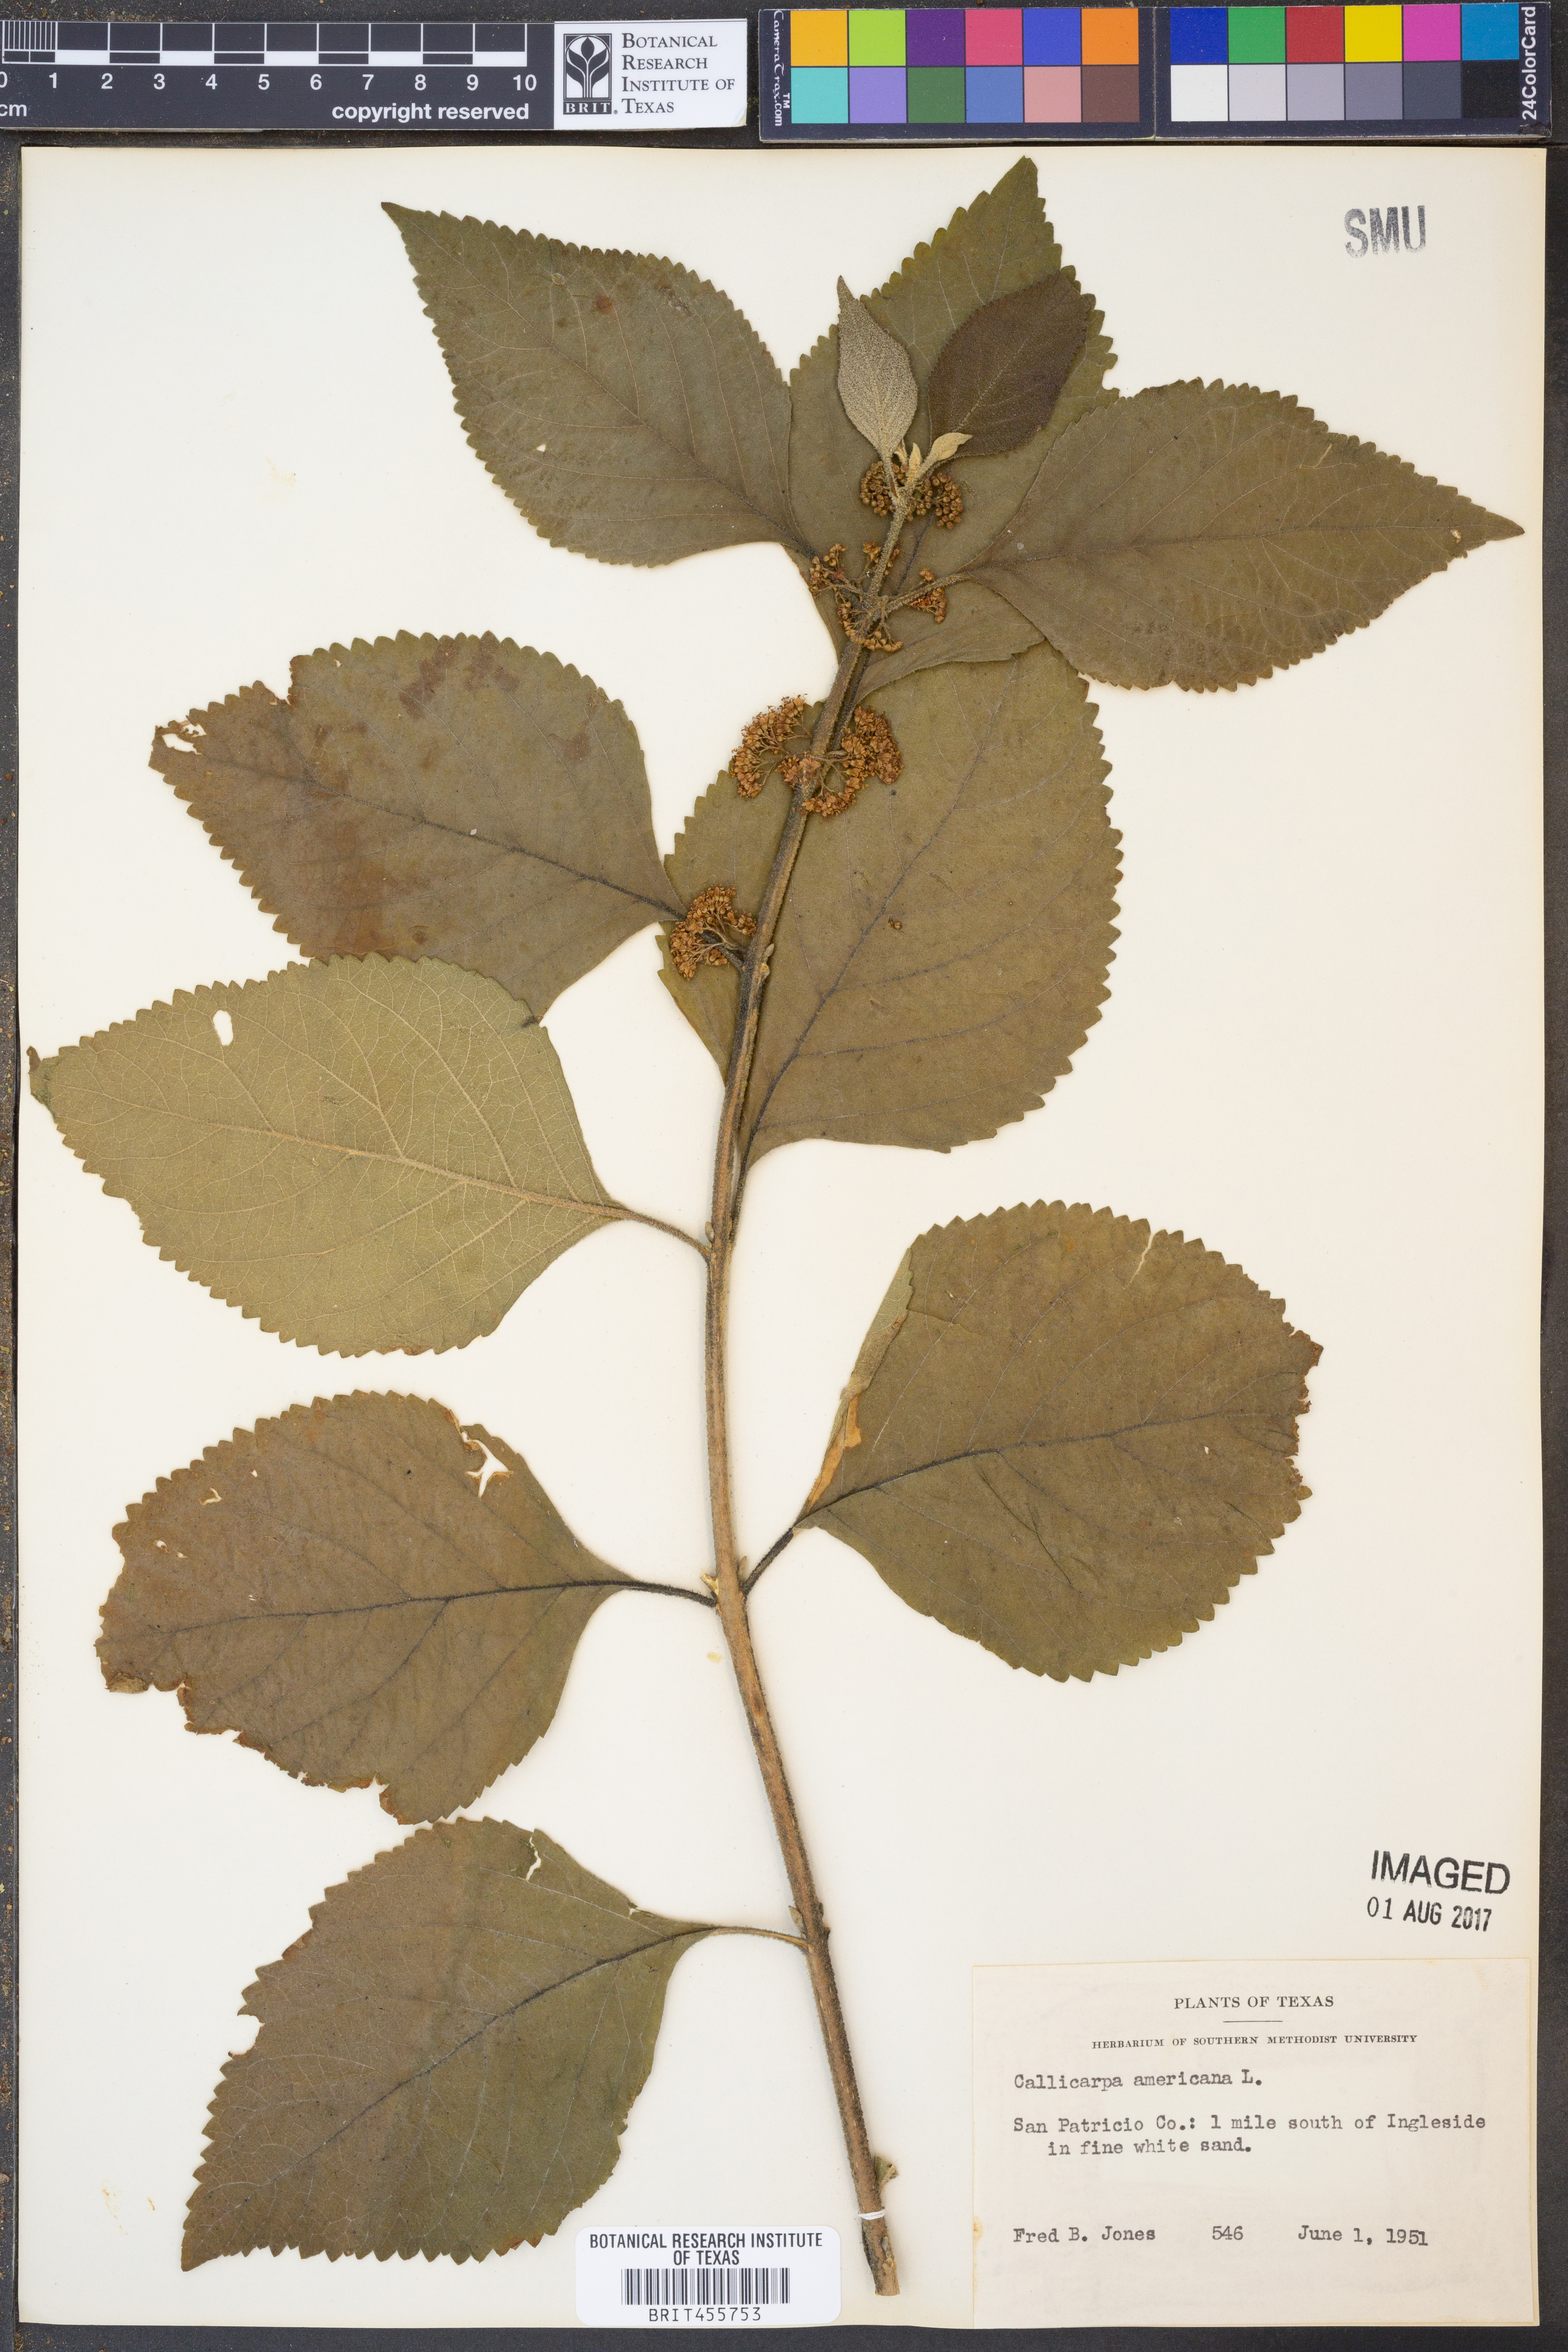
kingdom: Plantae
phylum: Tracheophyta
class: Magnoliopsida
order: Lamiales
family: Lamiaceae
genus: Callicarpa
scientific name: Callicarpa americana
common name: American beautyberry
